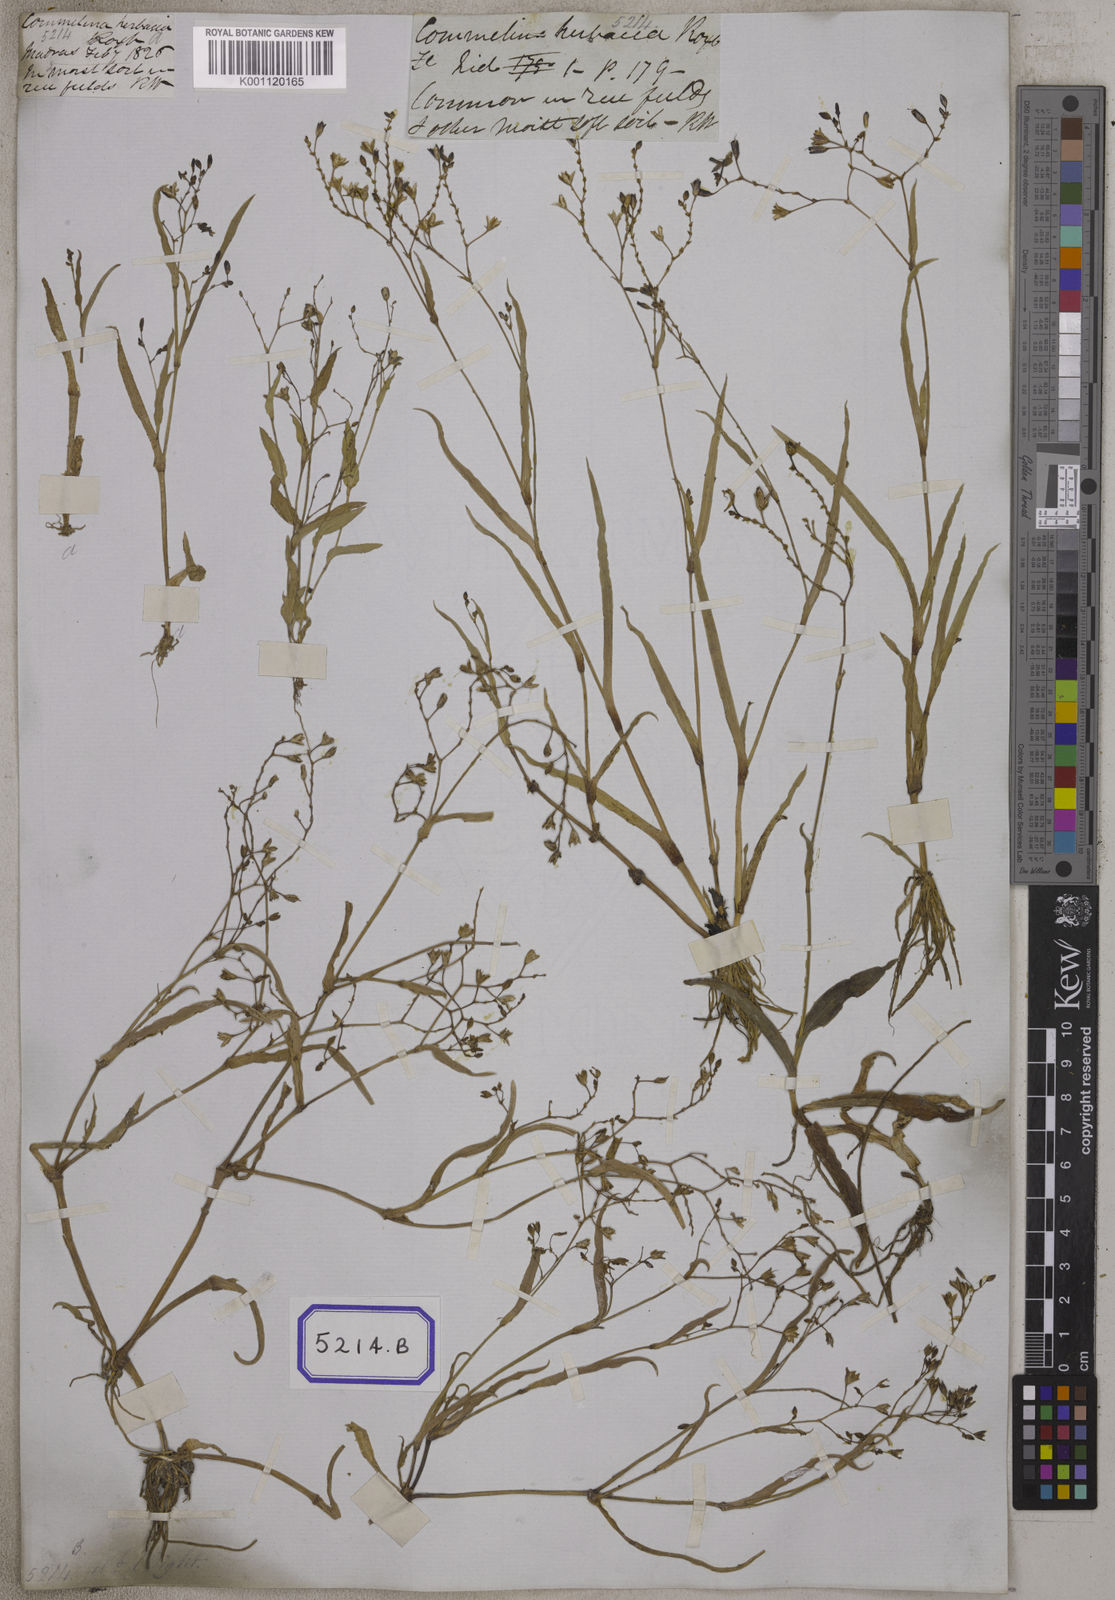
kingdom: Plantae
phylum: Tracheophyta
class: Liliopsida
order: Commelinales
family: Commelinaceae
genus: Aneilema
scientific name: Aneilema
